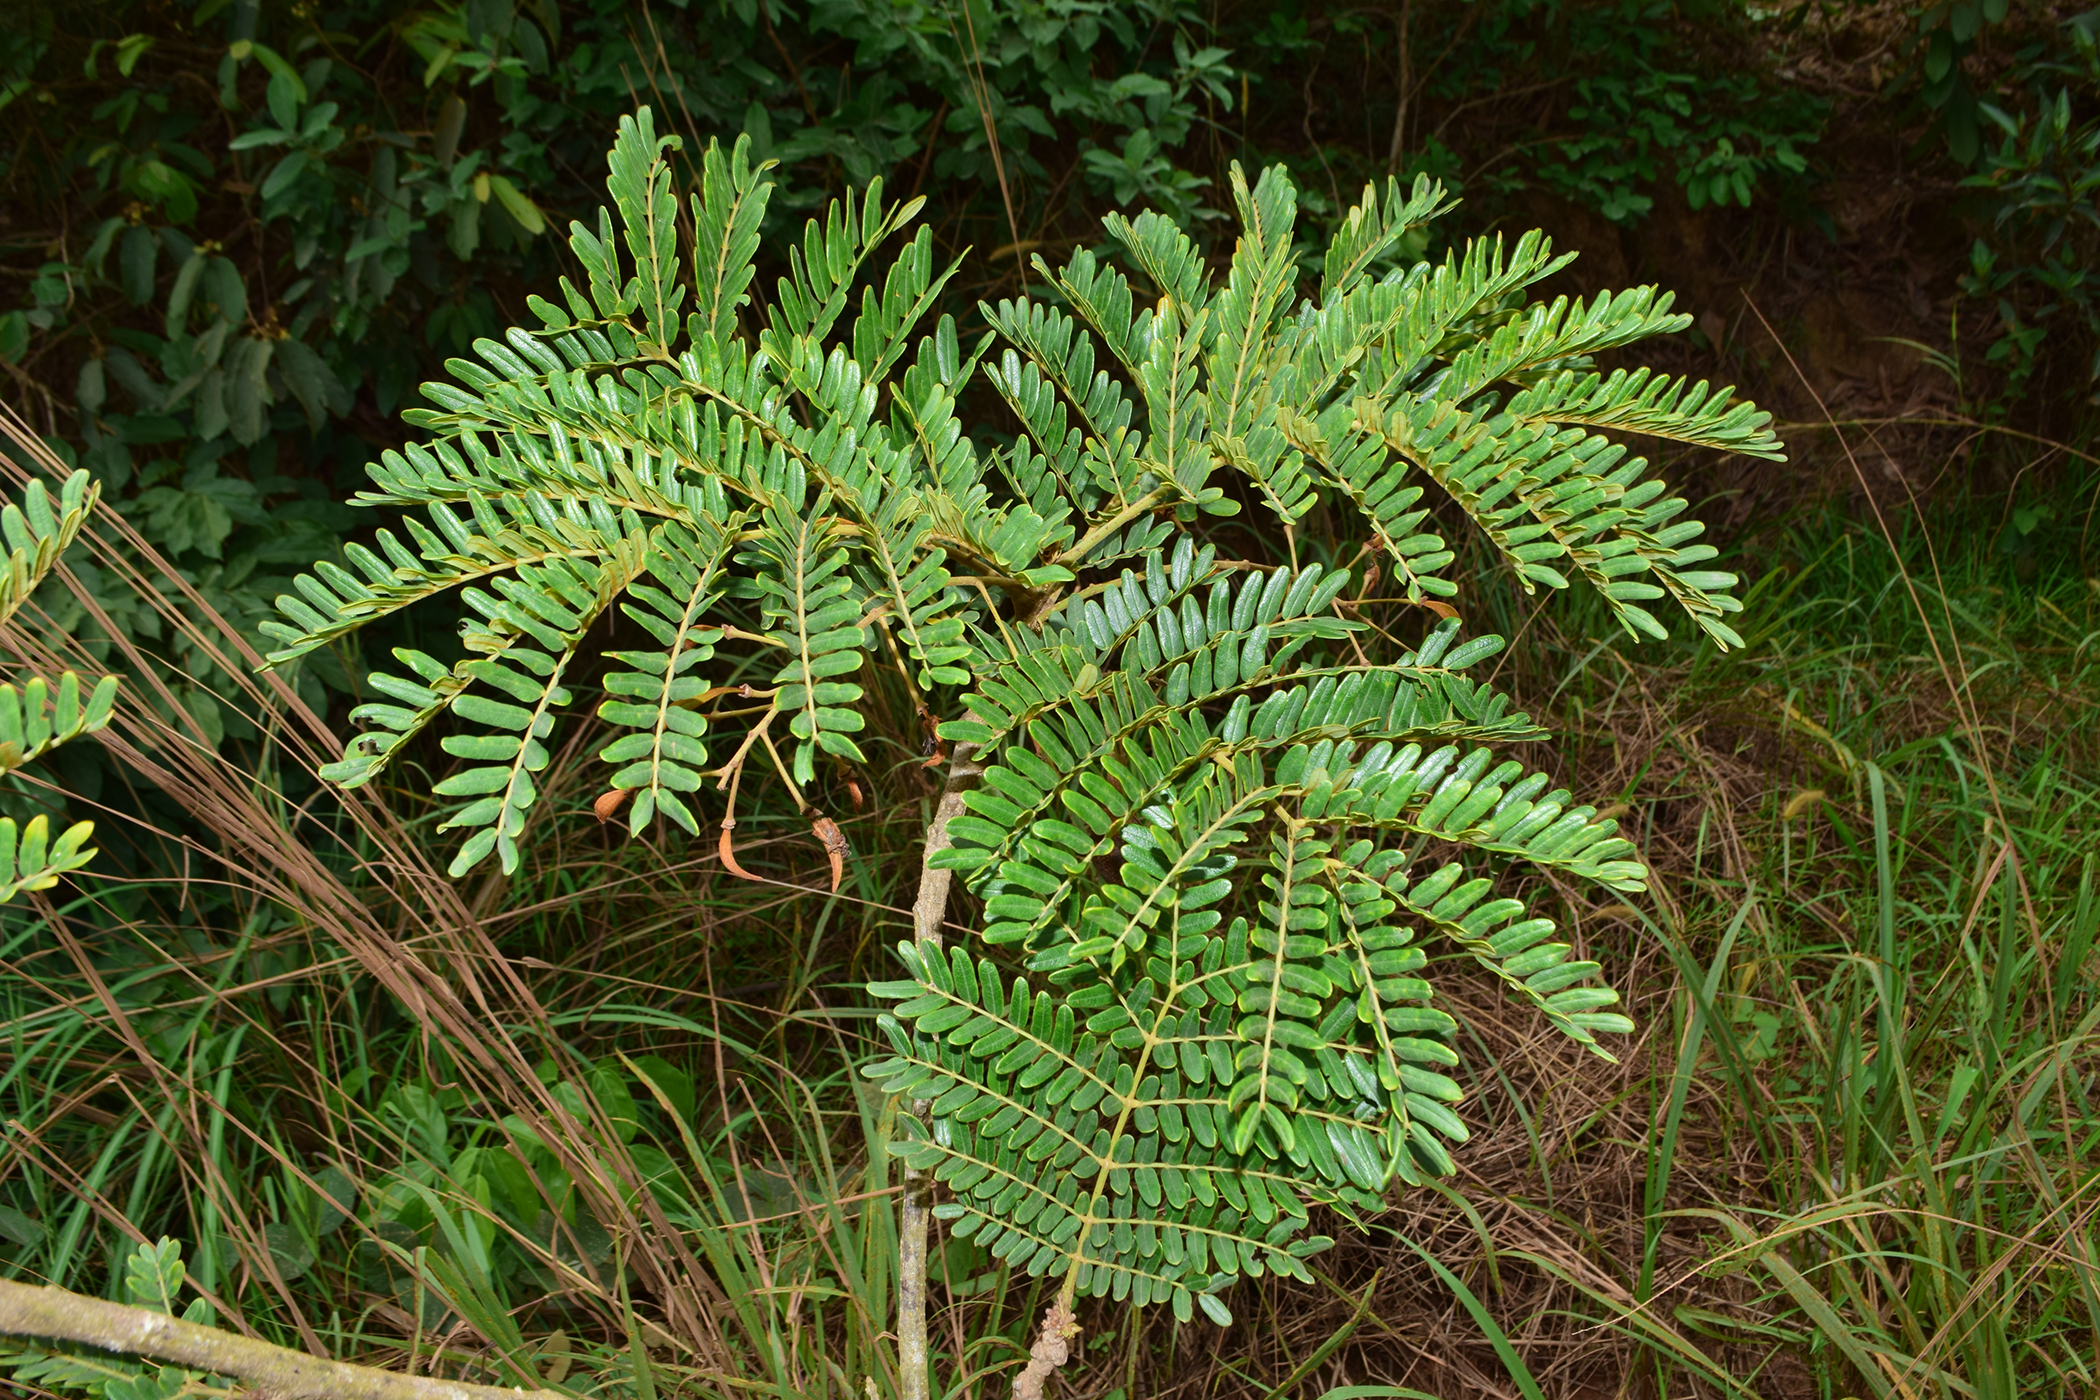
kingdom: Plantae
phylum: Tracheophyta
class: Magnoliopsida
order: Fabales
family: Fabaceae
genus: Peltophorum
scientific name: Peltophorum dasyrhachis
